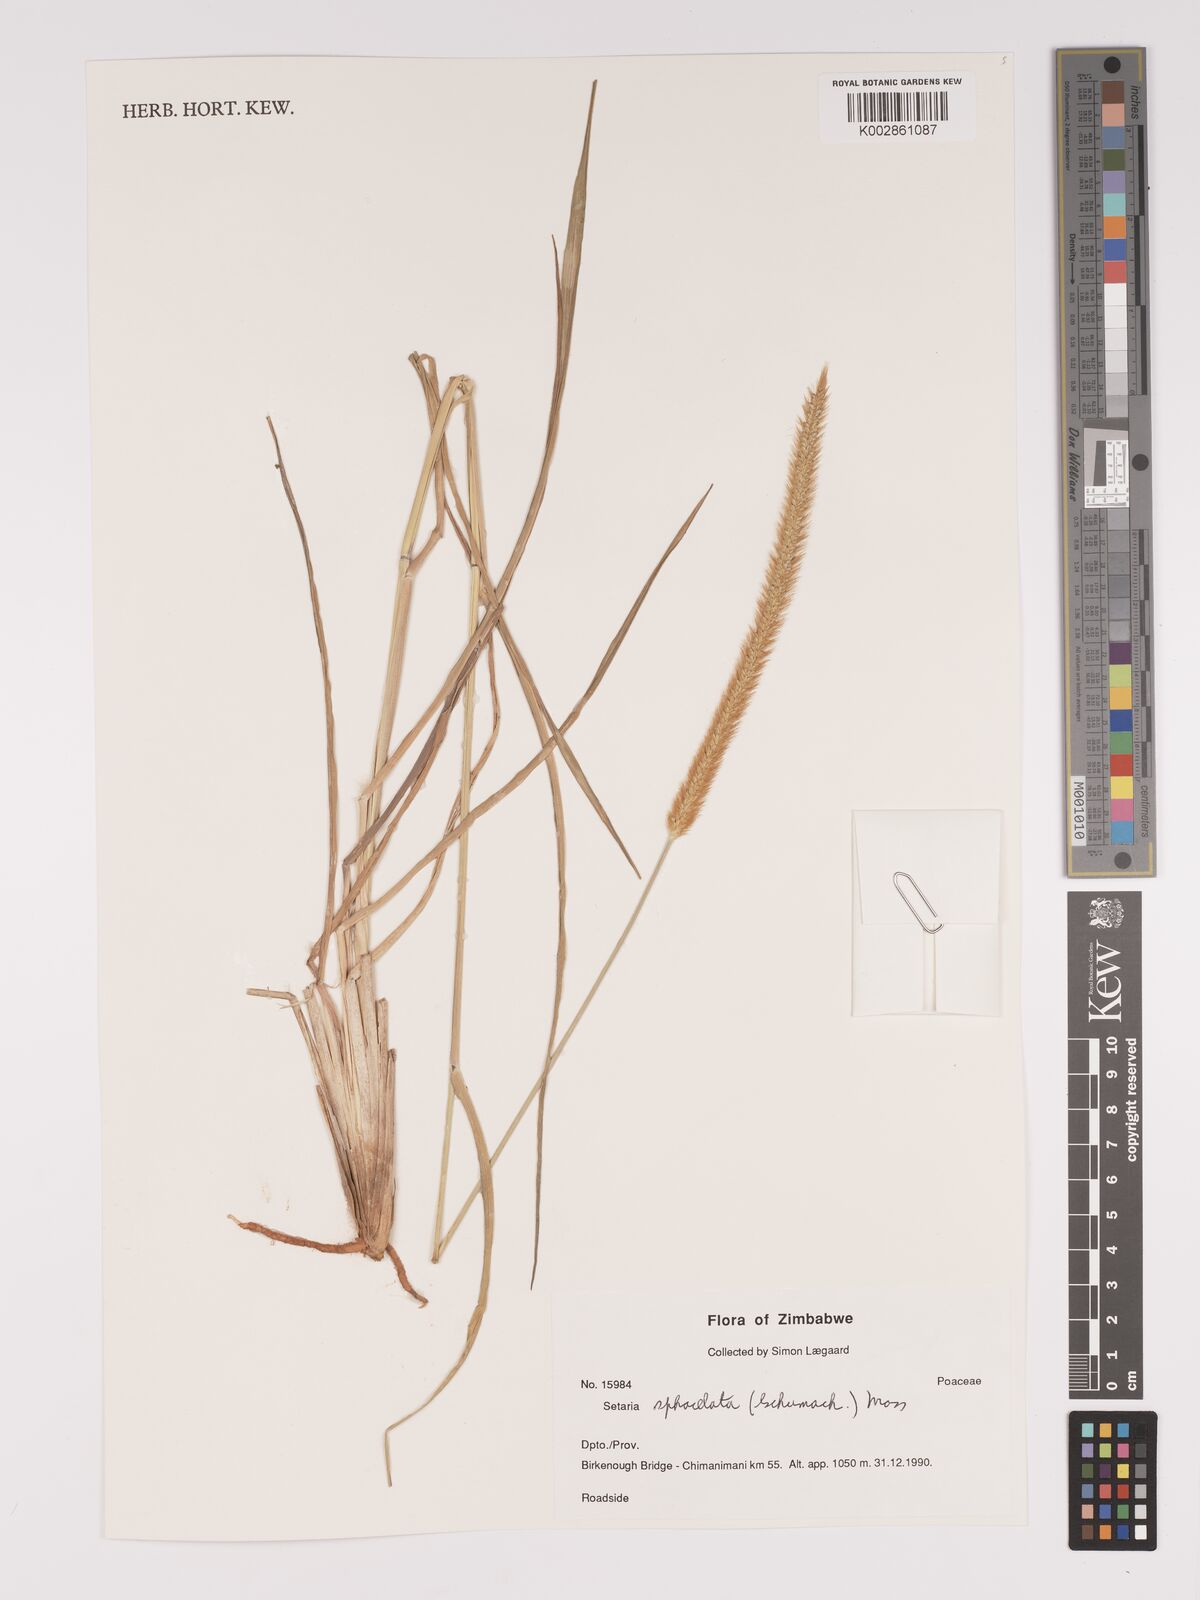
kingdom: Plantae
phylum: Tracheophyta
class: Liliopsida
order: Poales
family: Poaceae
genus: Setaria
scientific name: Setaria sphacelata
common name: African bristlegrass
